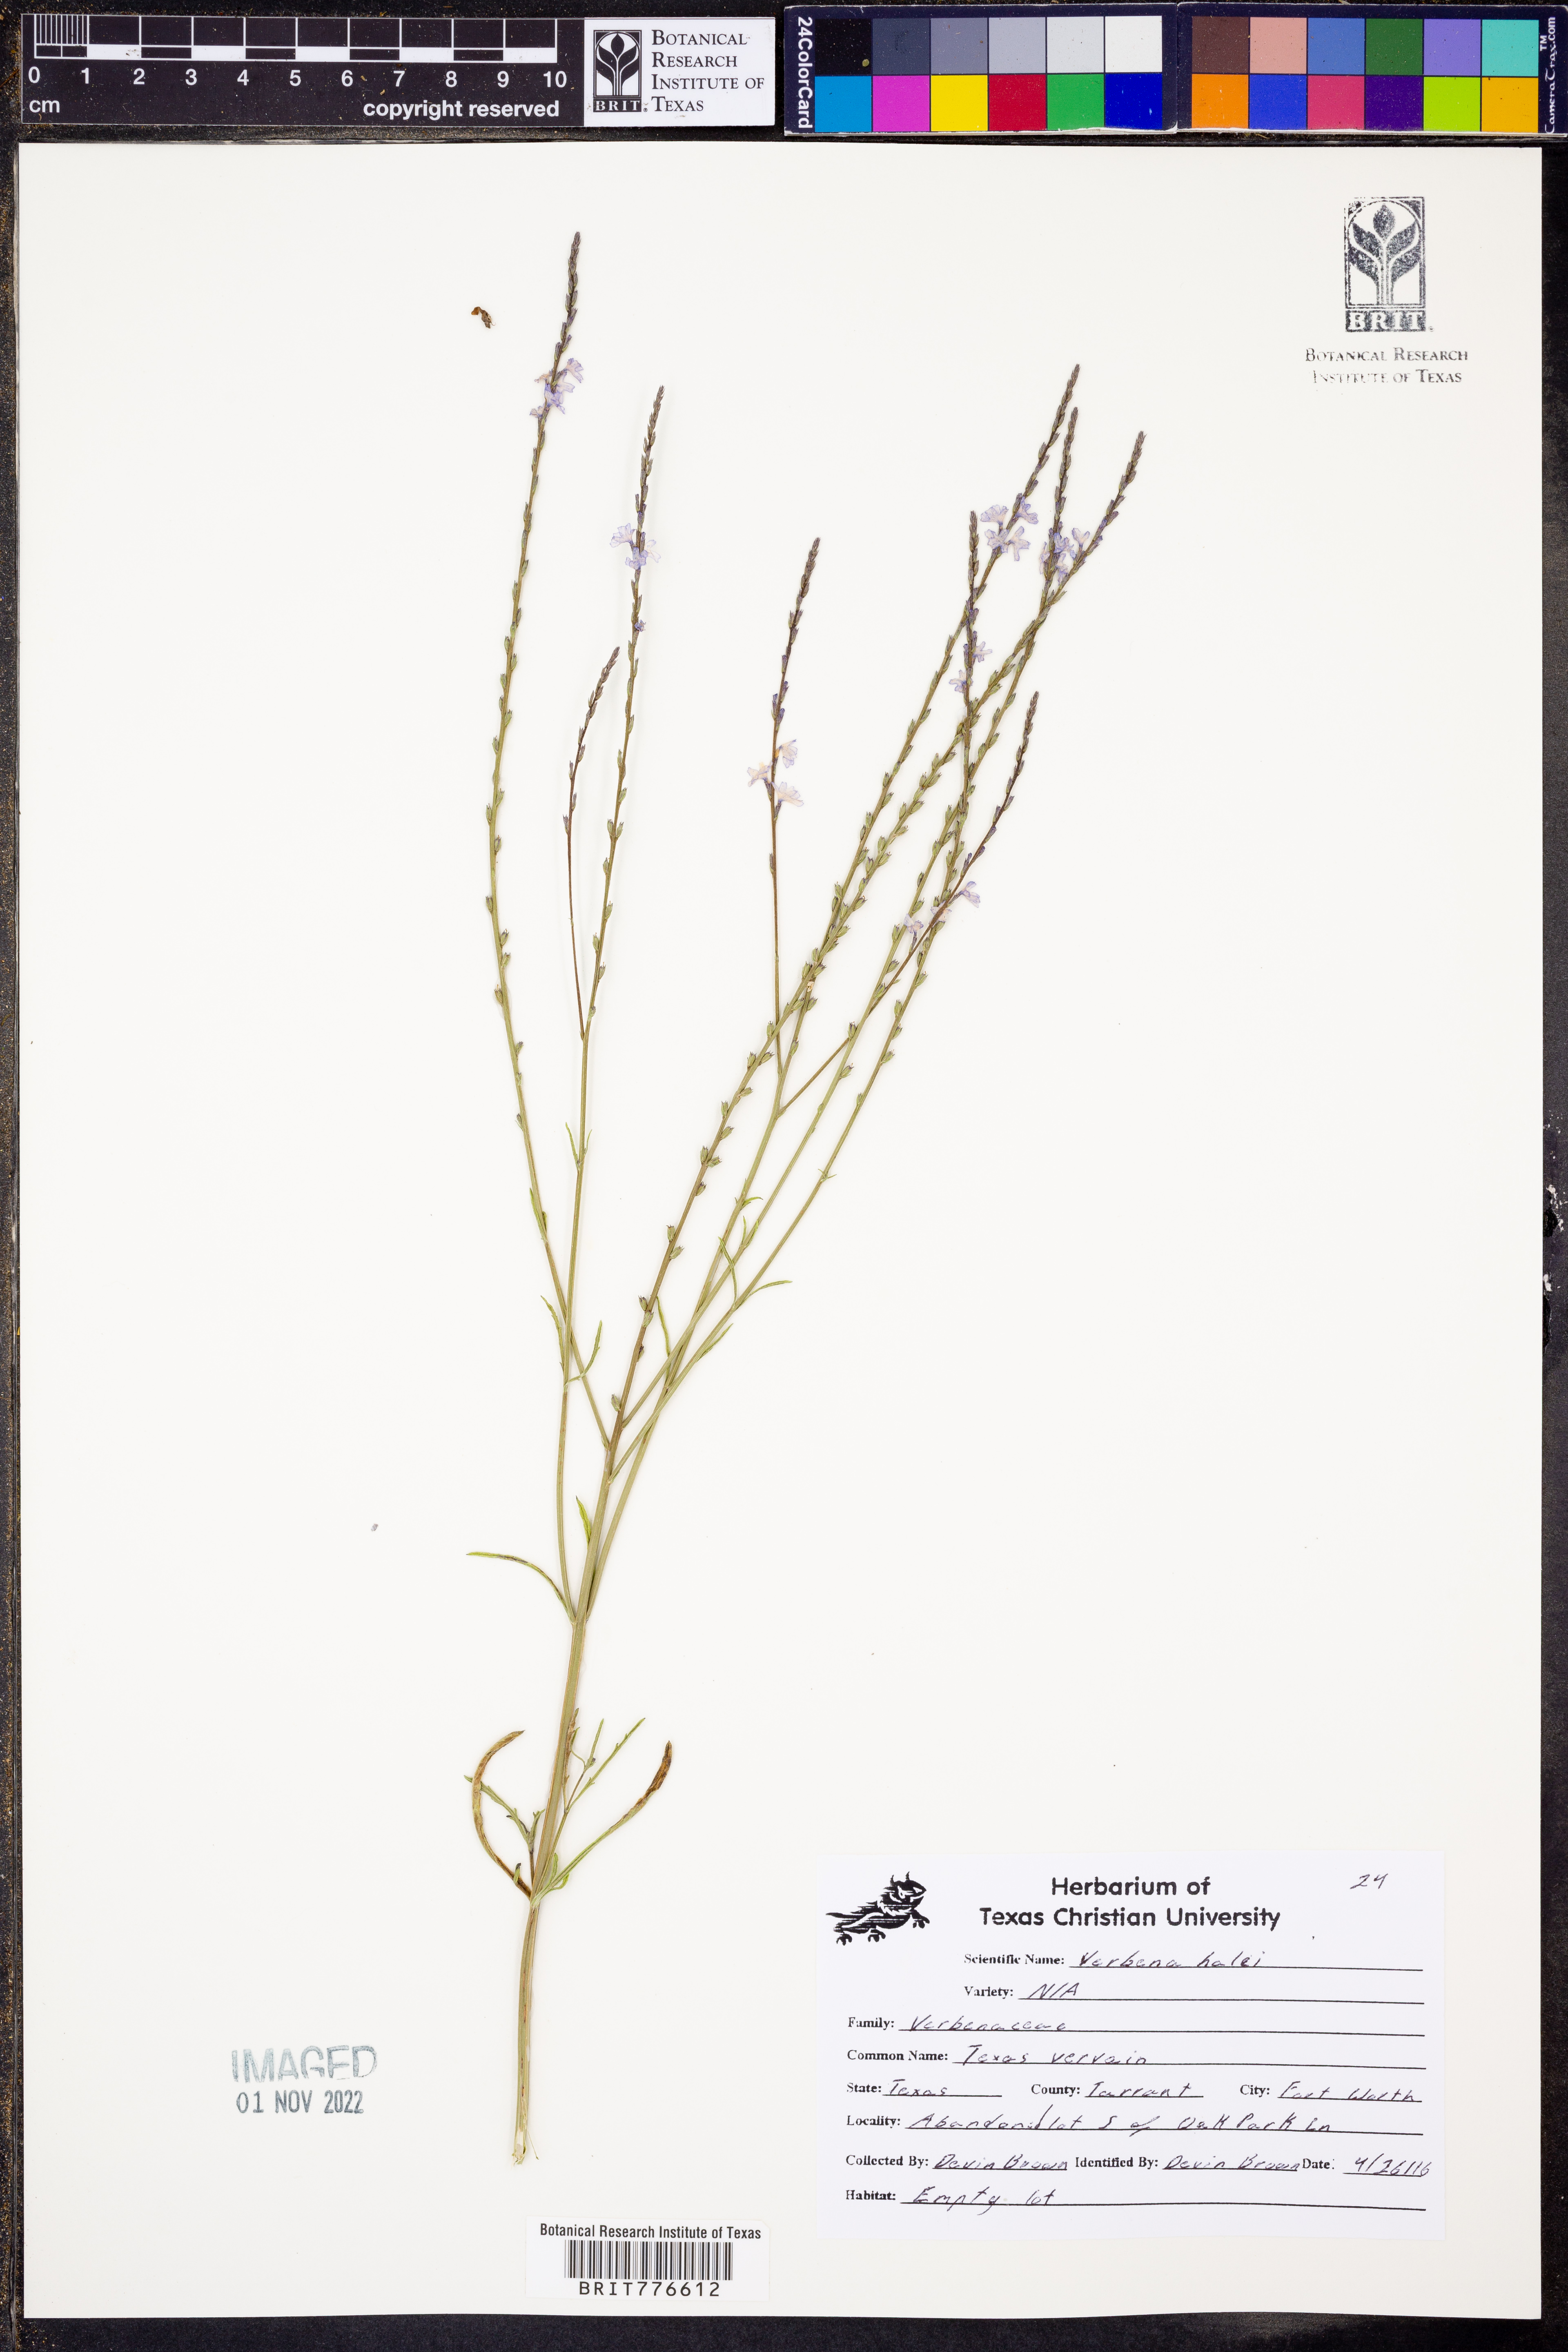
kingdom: Plantae
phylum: Tracheophyta
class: Magnoliopsida
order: Lamiales
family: Verbenaceae
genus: Verbena
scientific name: Verbena halei
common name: Texas vervain
